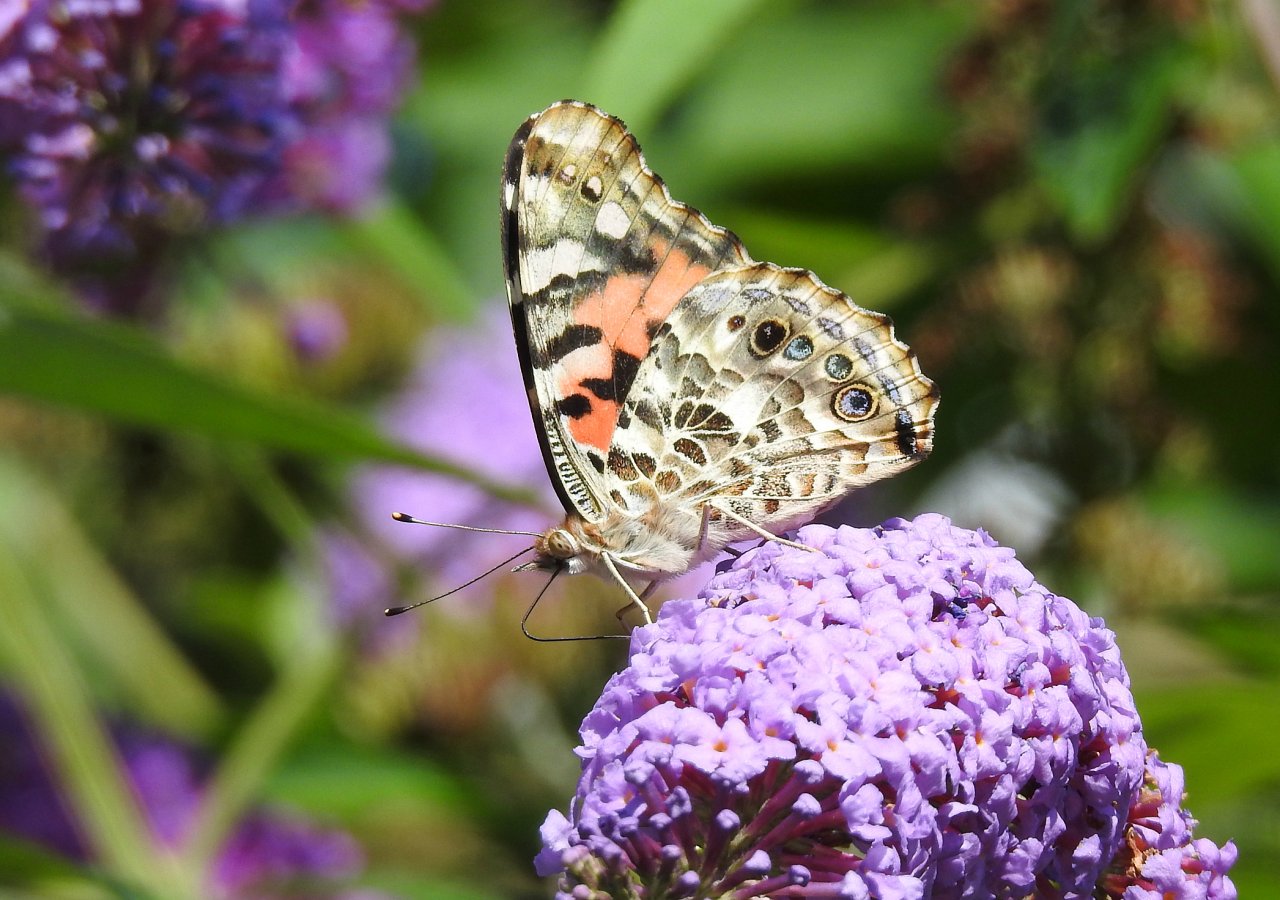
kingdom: Animalia
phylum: Arthropoda
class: Insecta
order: Lepidoptera
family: Nymphalidae
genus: Vanessa
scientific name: Vanessa cardui
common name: Painted Lady
